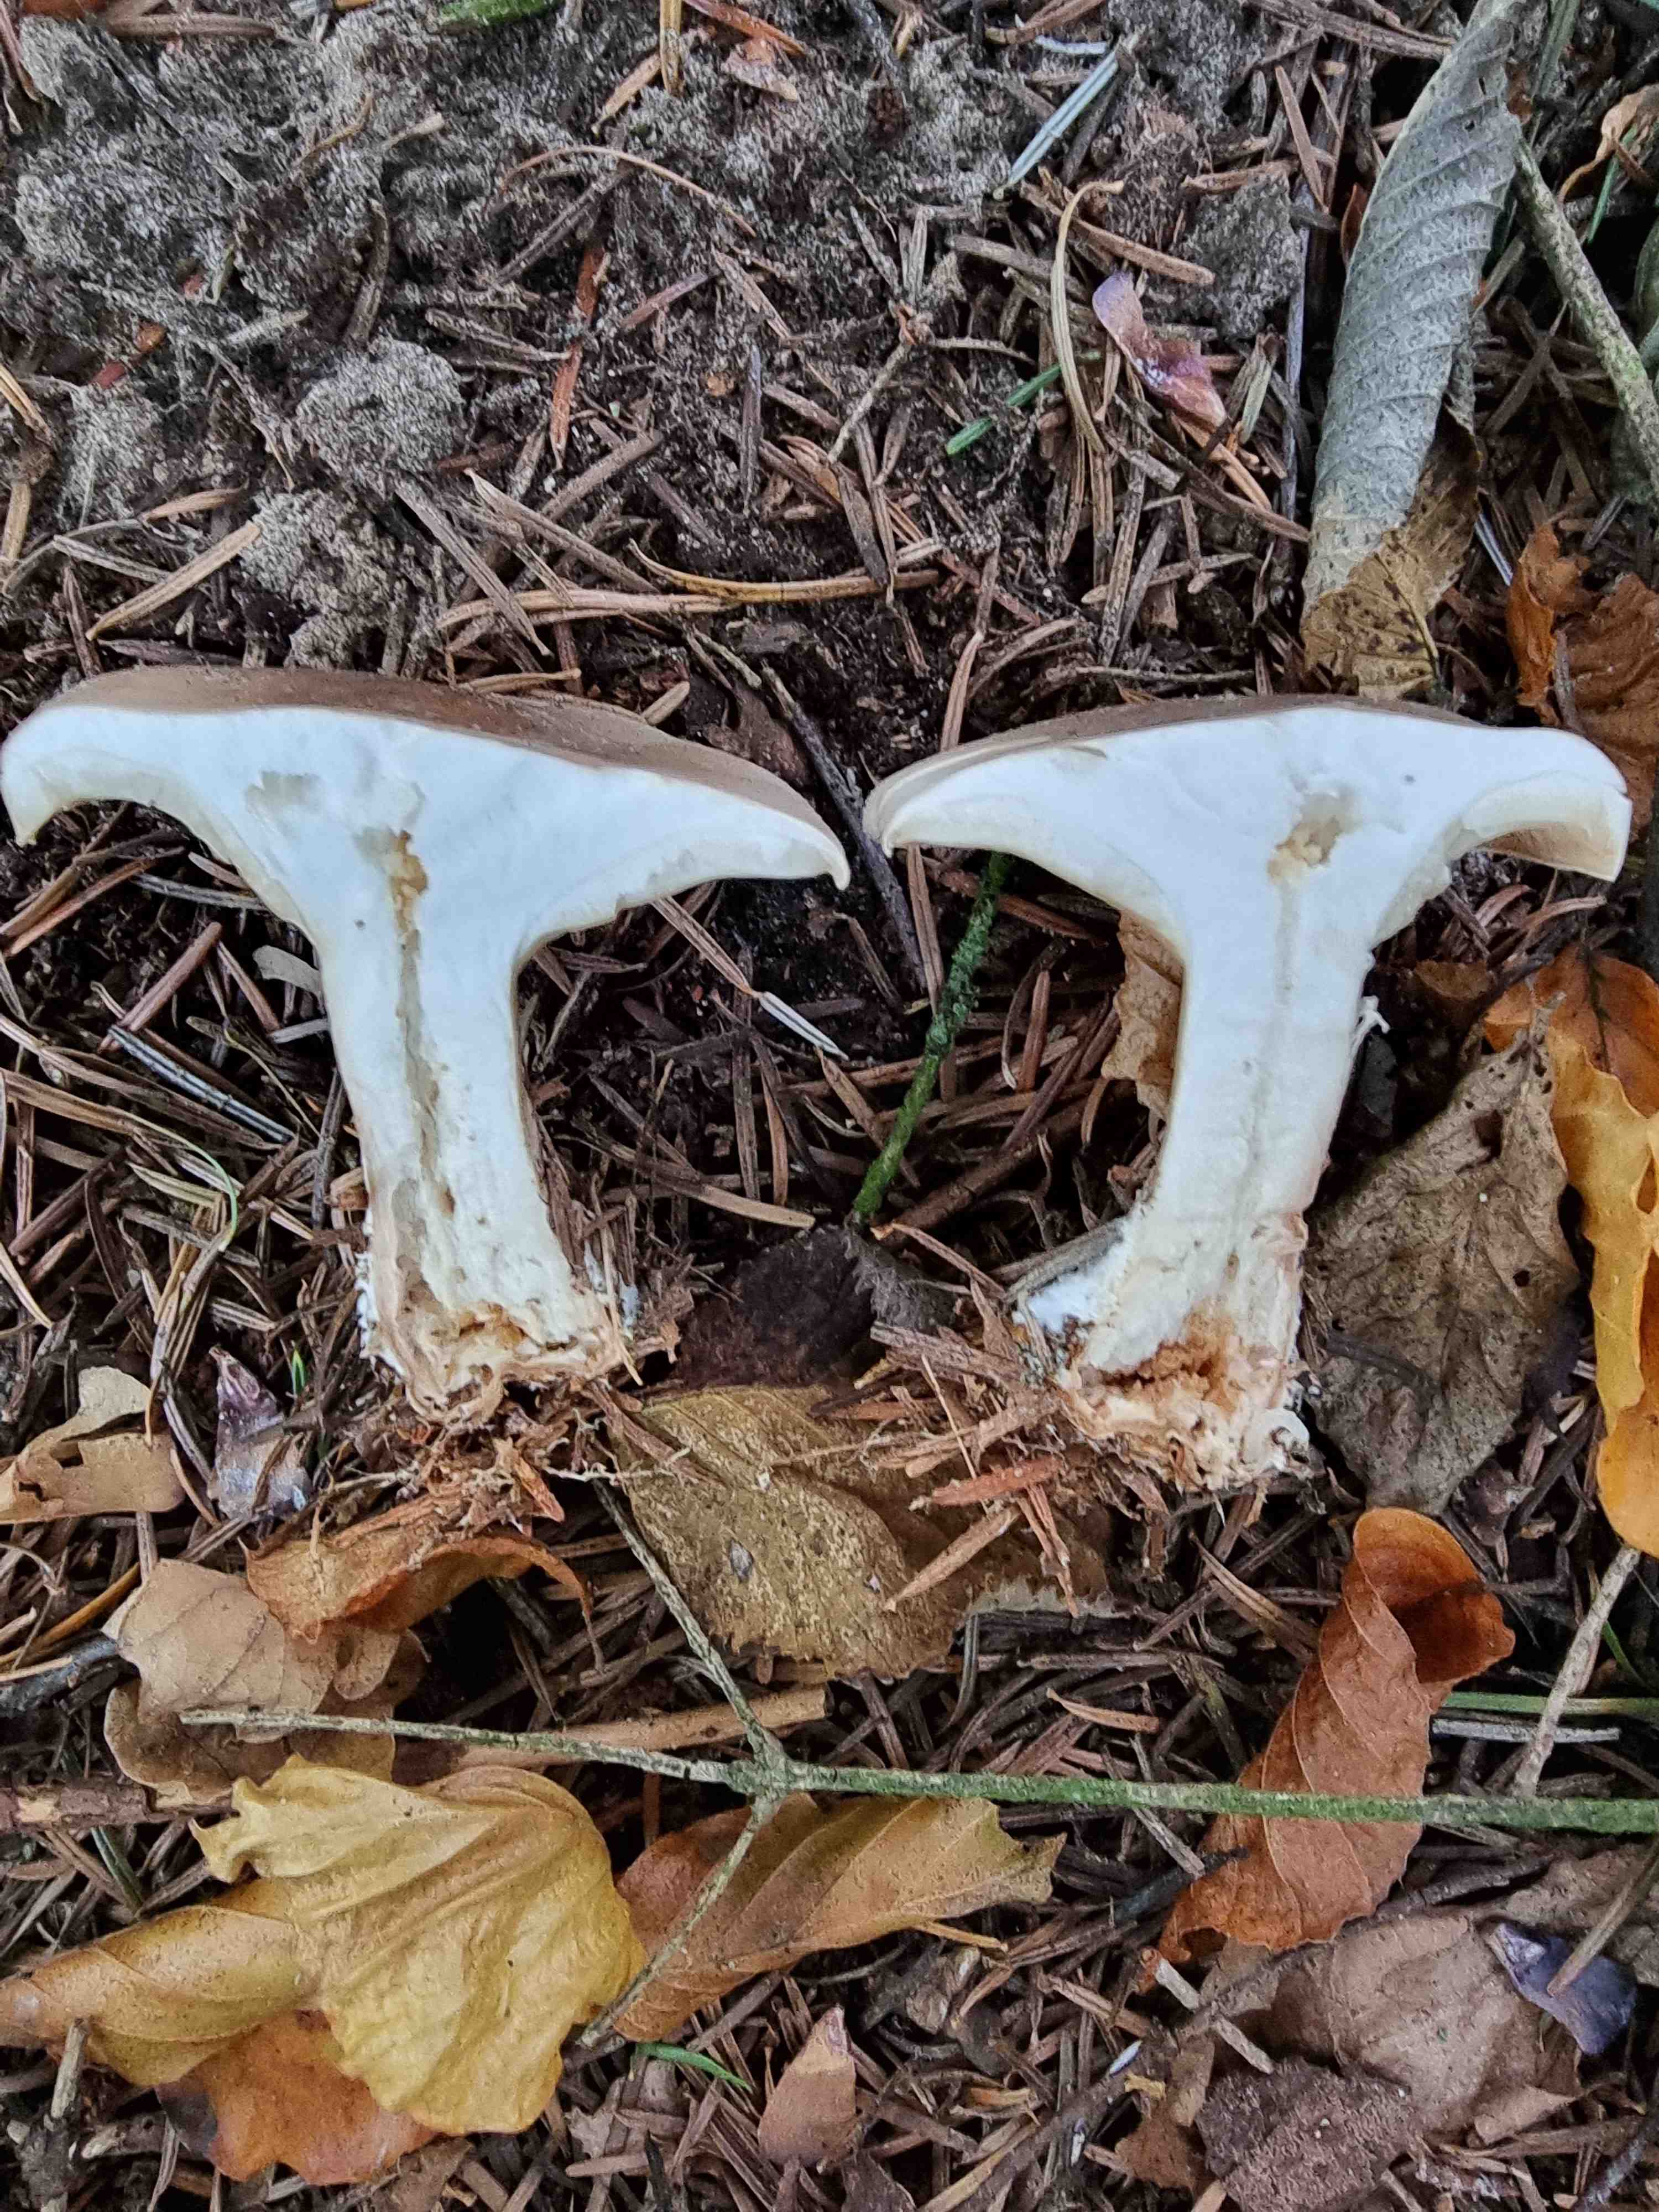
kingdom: Fungi
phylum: Basidiomycota
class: Agaricomycetes
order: Agaricales
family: Tricholomataceae
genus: Clitocybe
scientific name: Clitocybe nebularis
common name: tåge-tragthat
